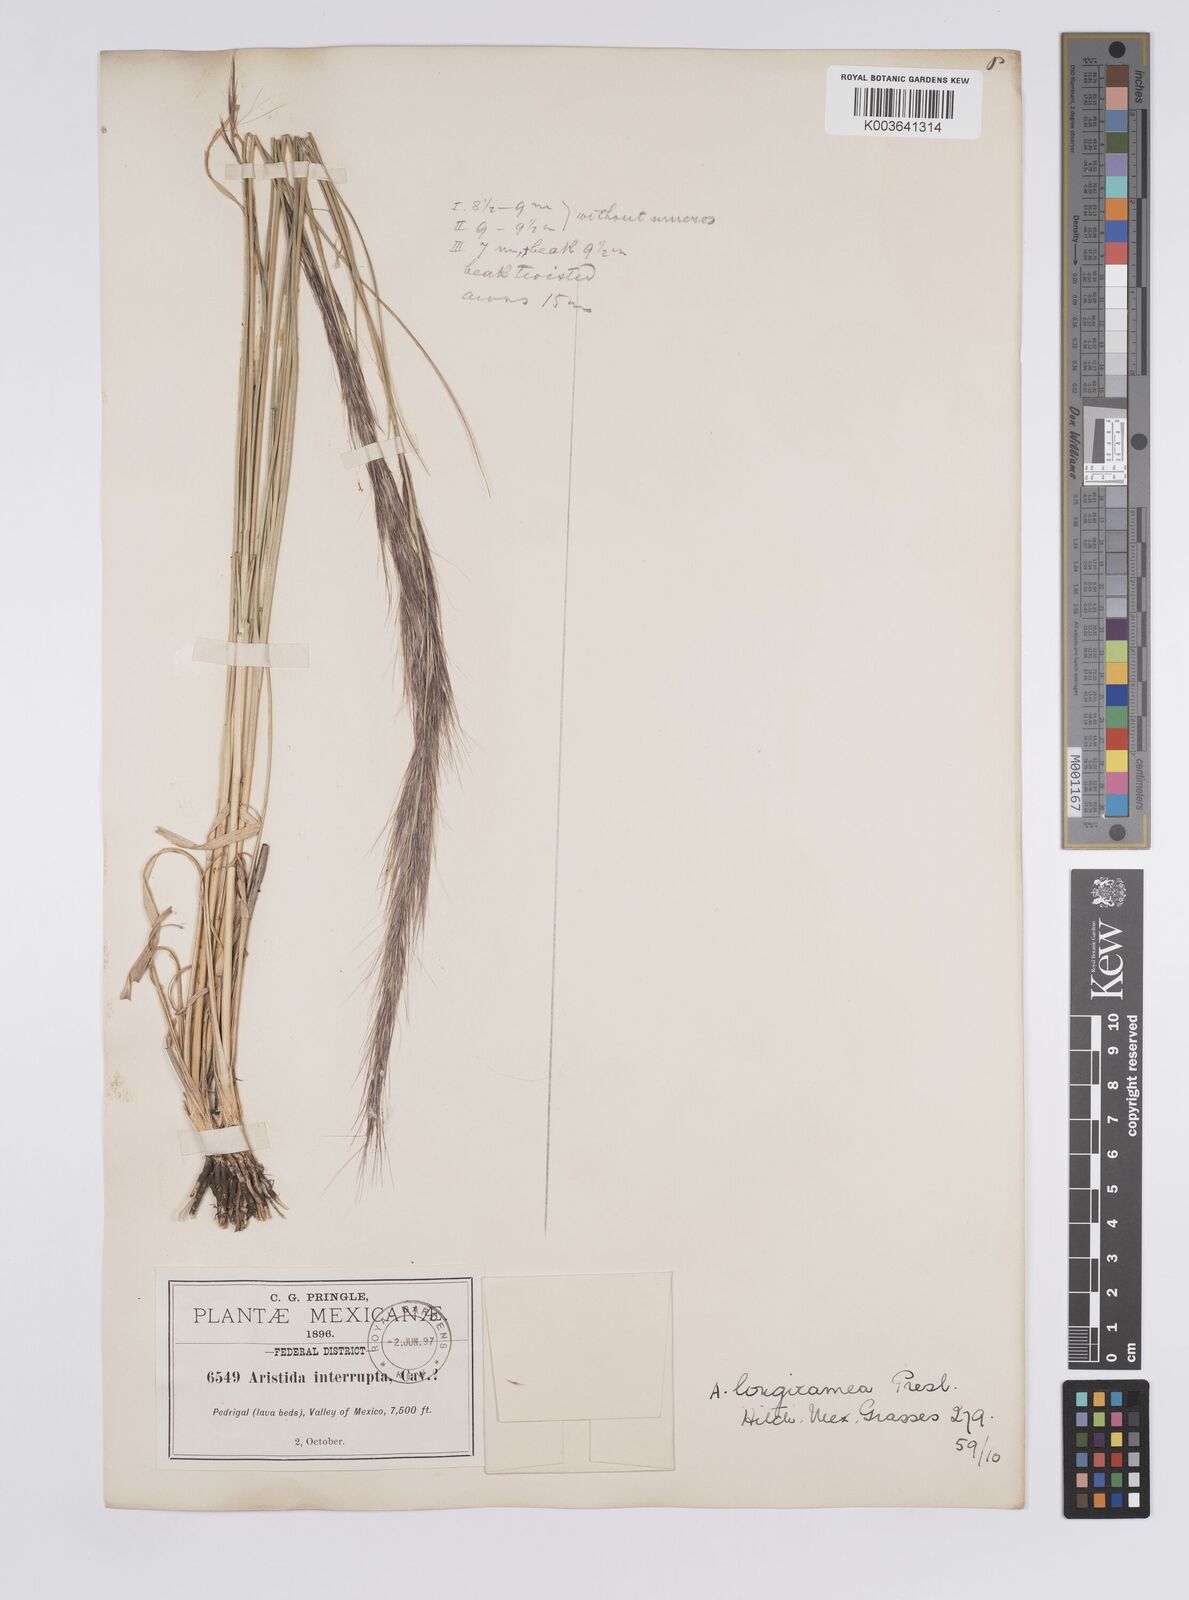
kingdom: Plantae
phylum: Tracheophyta
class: Liliopsida
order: Poales
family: Poaceae
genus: Aristida
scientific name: Aristida laxa
